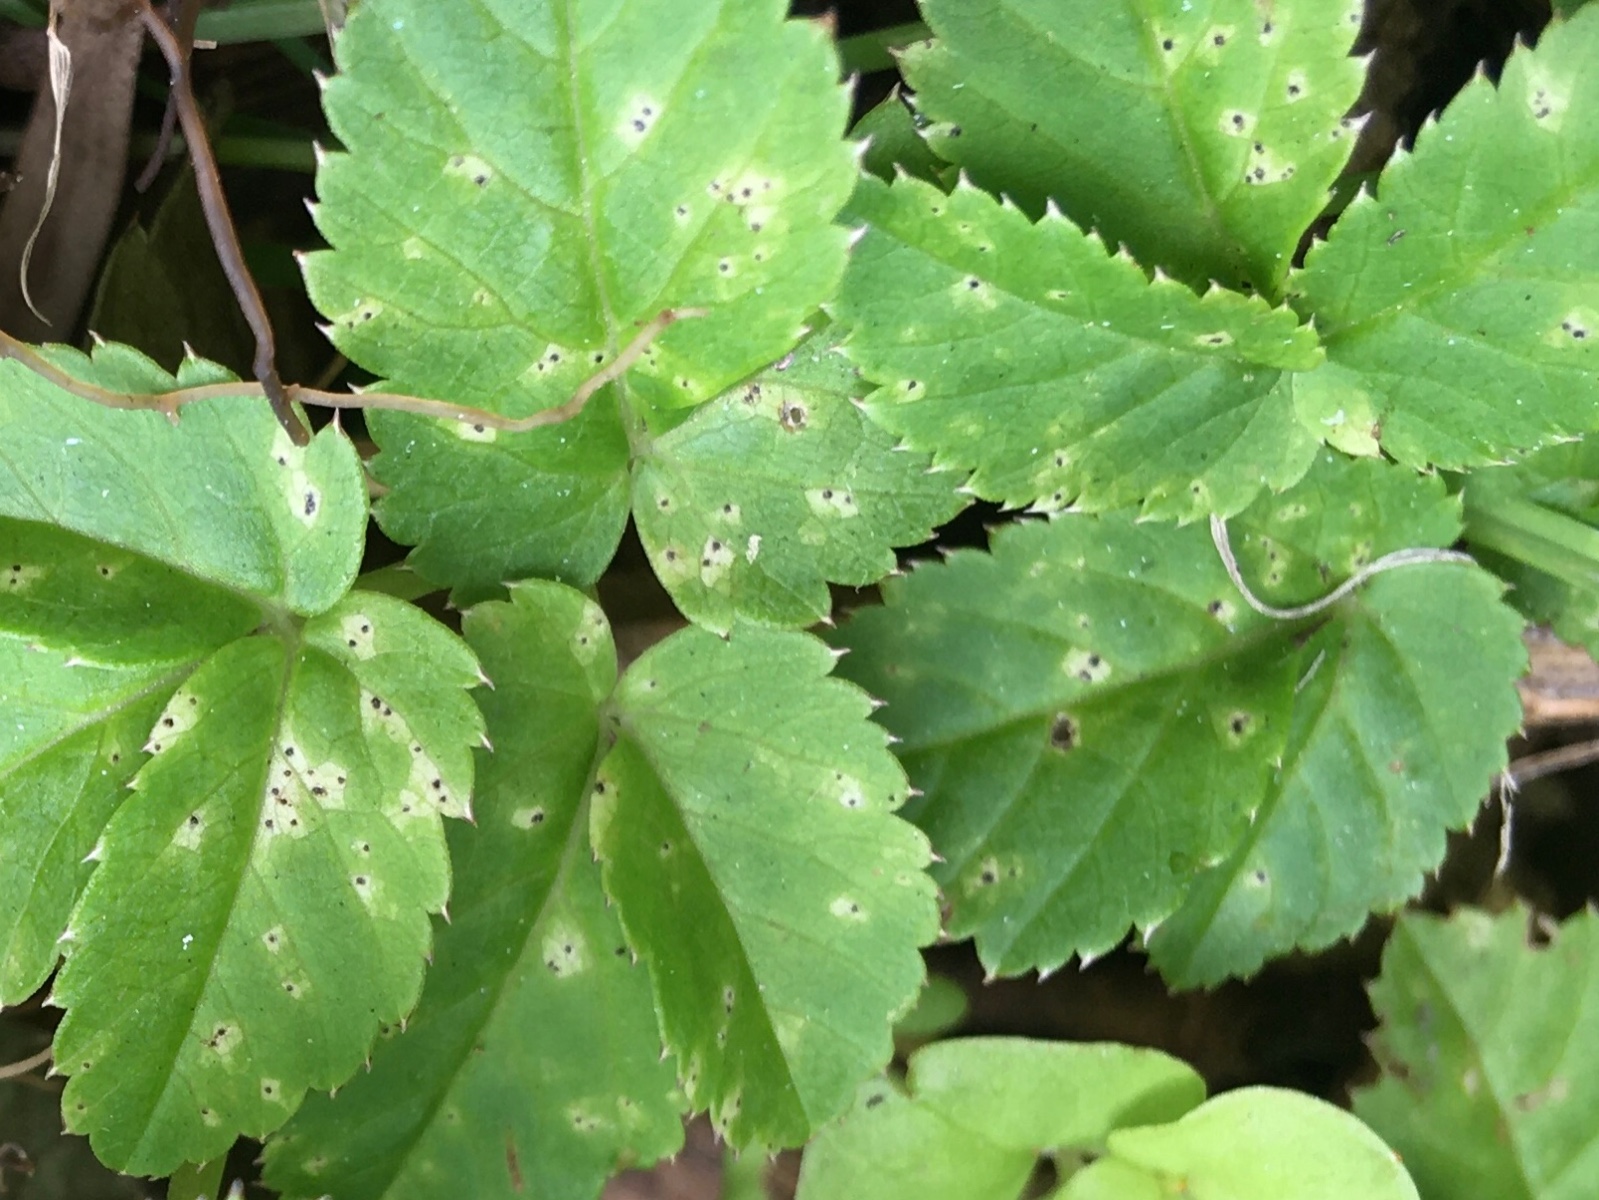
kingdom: Fungi
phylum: Ascomycota
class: Dothideomycetes
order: Mycosphaerellales
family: Mycosphaerellaceae
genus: Mycosphaerella
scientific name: Mycosphaerella podagrariae
